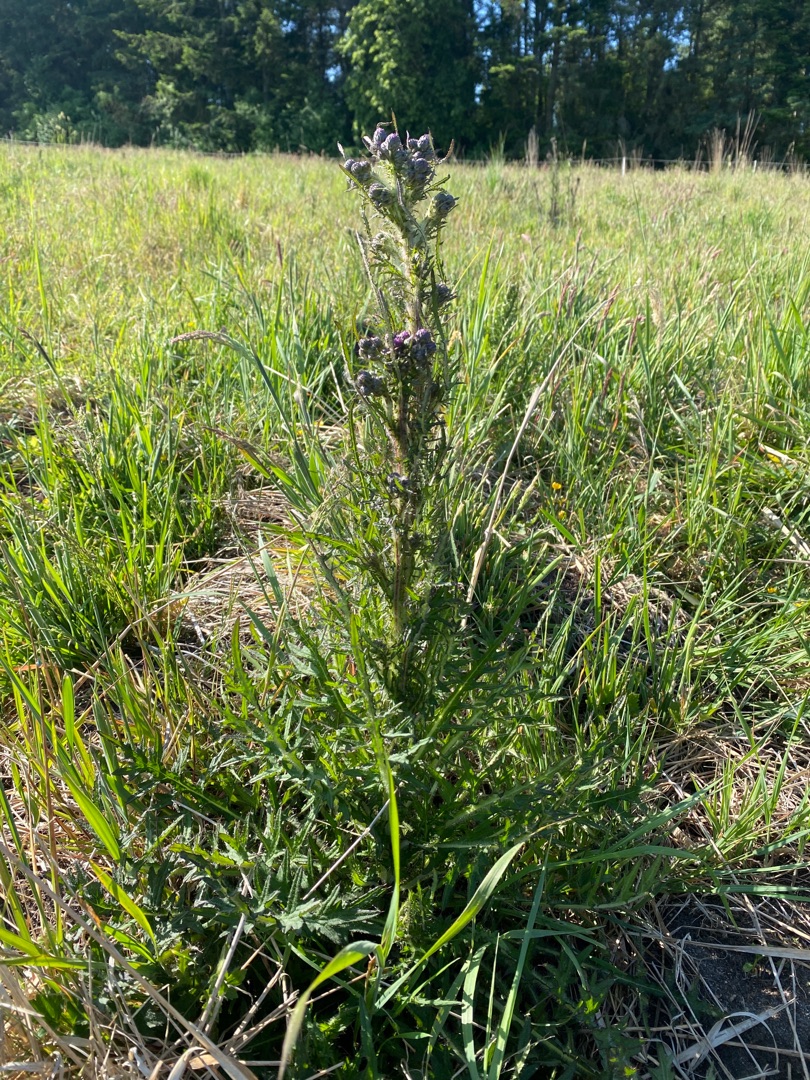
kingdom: Plantae
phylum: Tracheophyta
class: Magnoliopsida
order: Asterales
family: Asteraceae
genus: Cirsium
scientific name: Cirsium palustre
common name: Kær-tidsel
